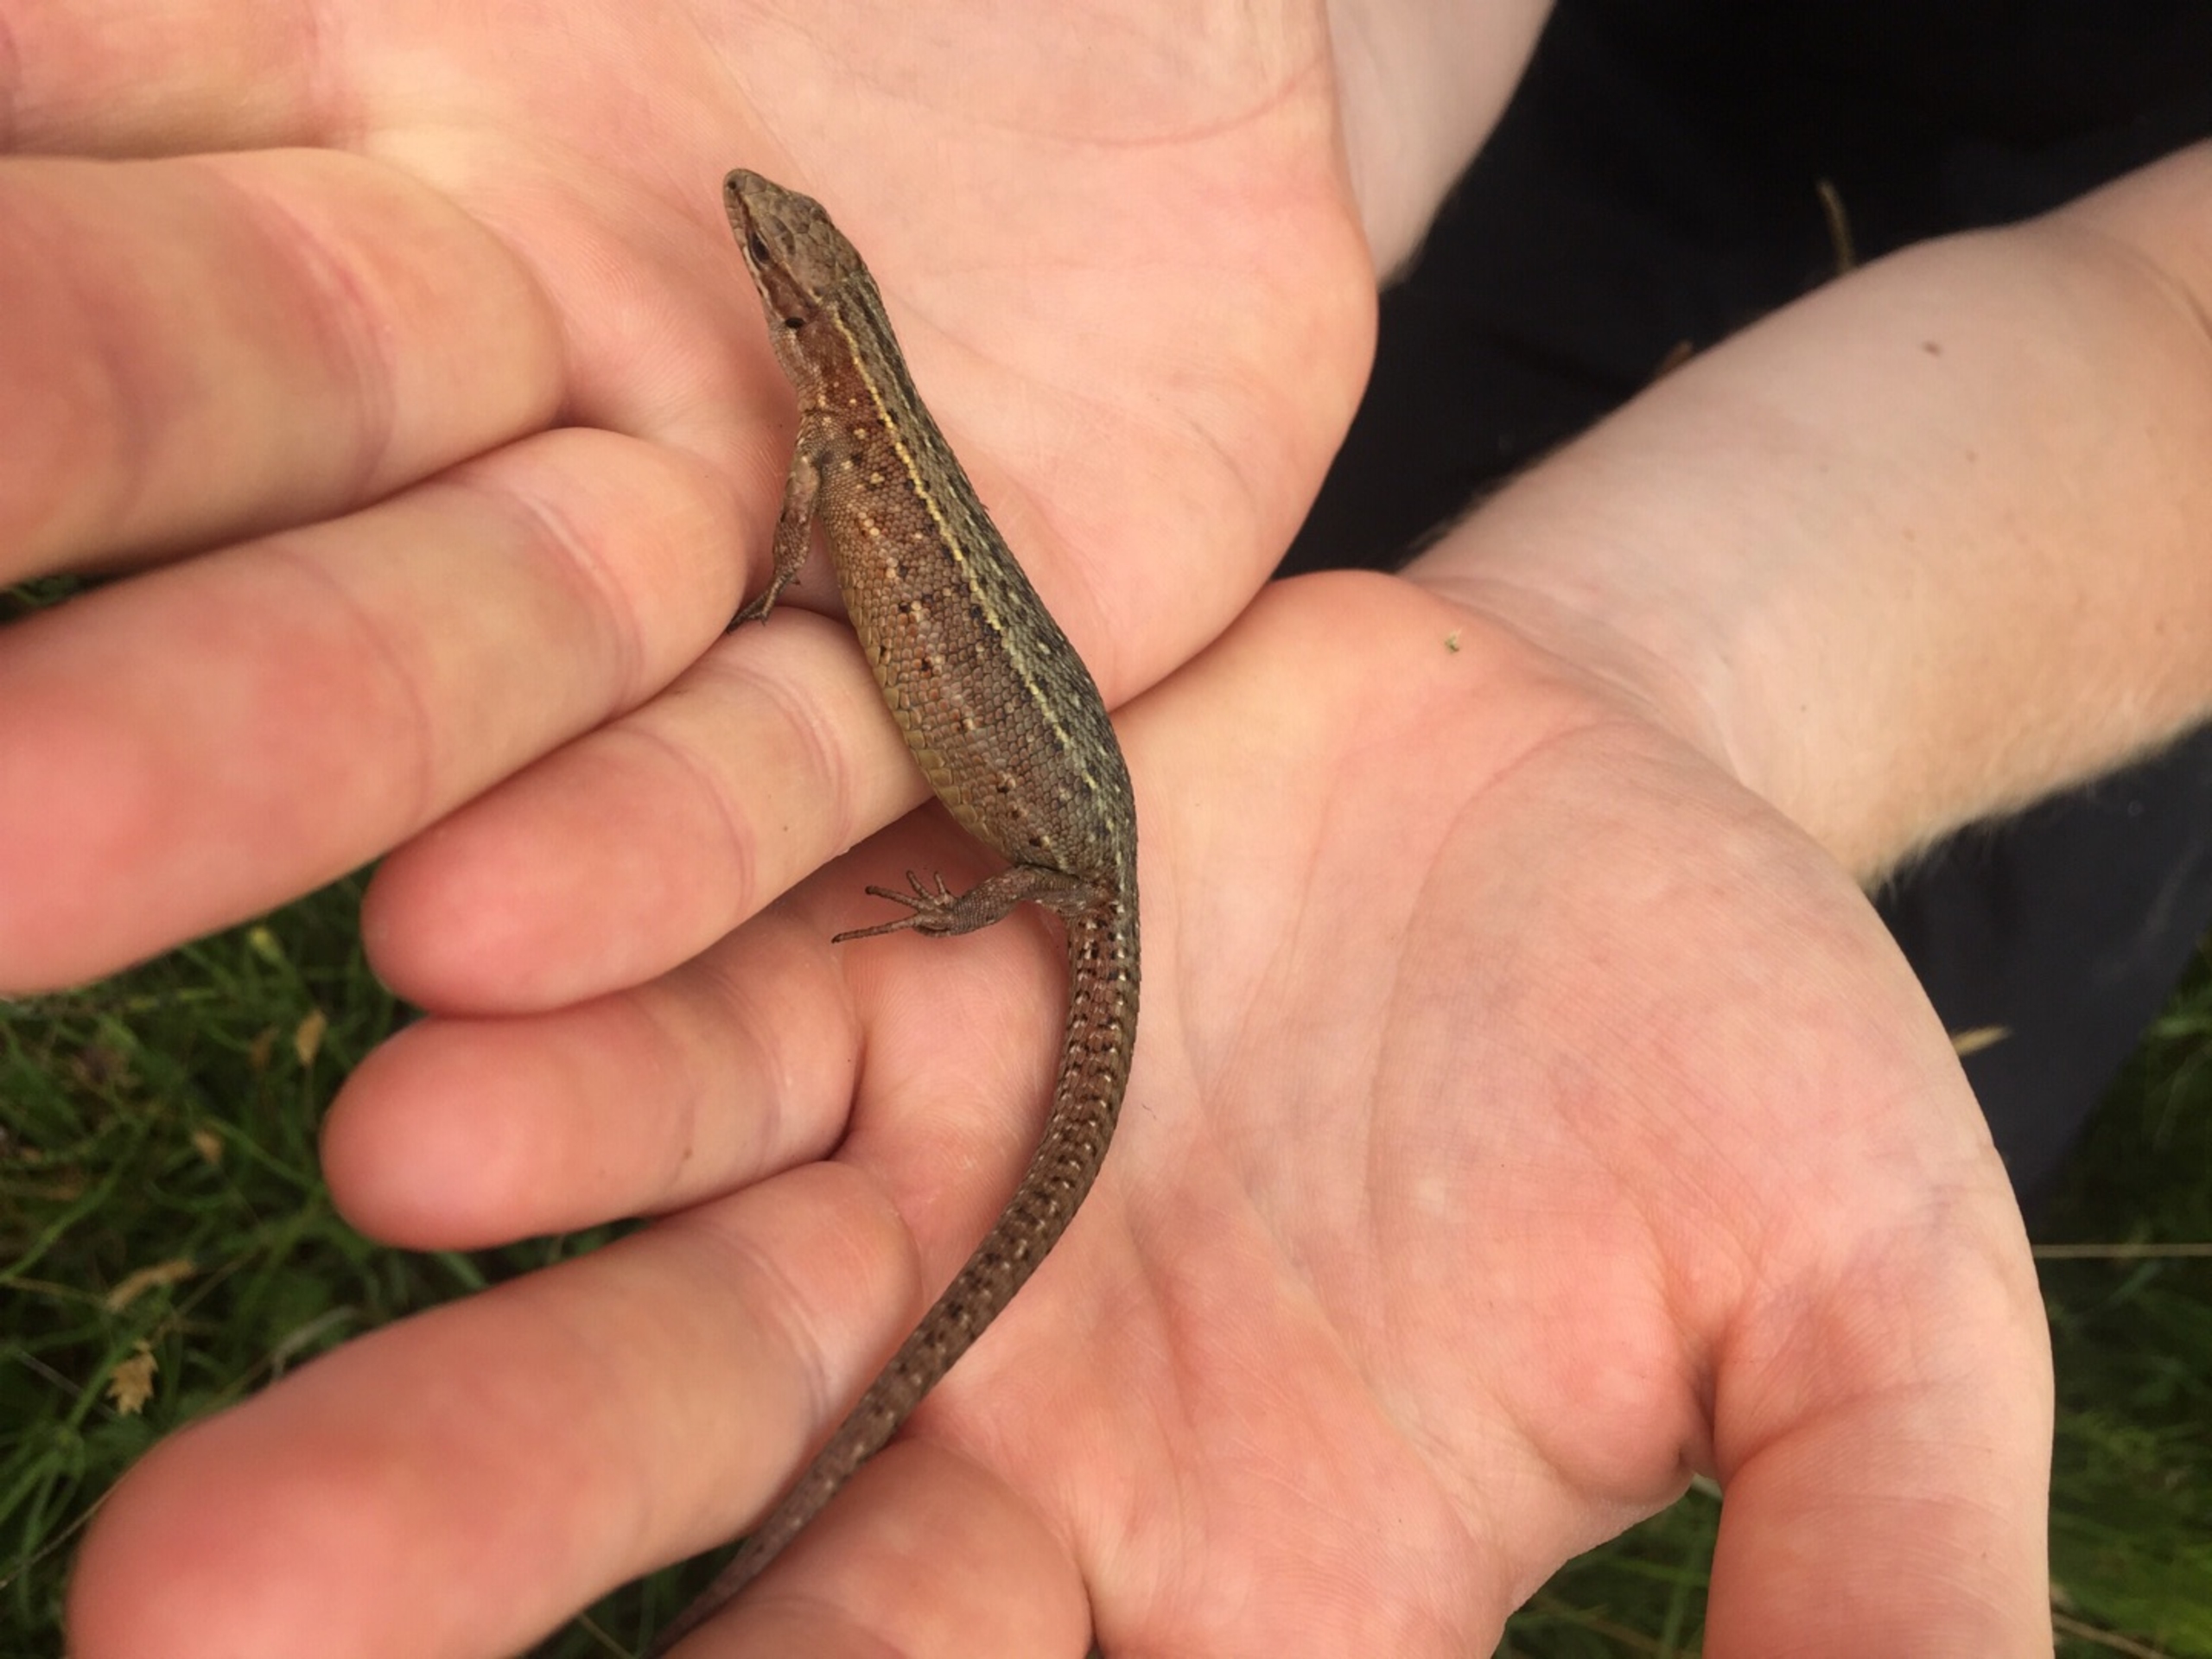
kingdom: Animalia
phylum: Chordata
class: Squamata
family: Lacertidae
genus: Zootoca
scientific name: Zootoca vivipara
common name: Skovfirben
